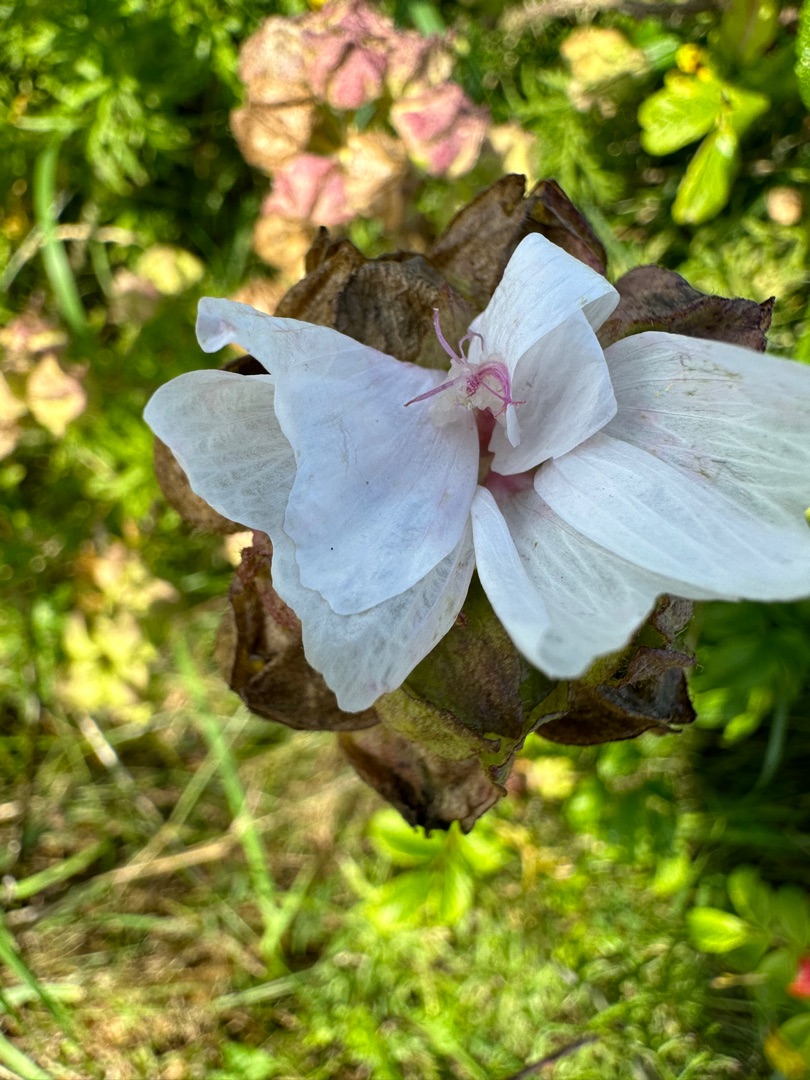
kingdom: Plantae
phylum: Tracheophyta
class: Magnoliopsida
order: Malvales
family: Malvaceae
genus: Malva
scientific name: Malva moschata
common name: Moskus-katost
